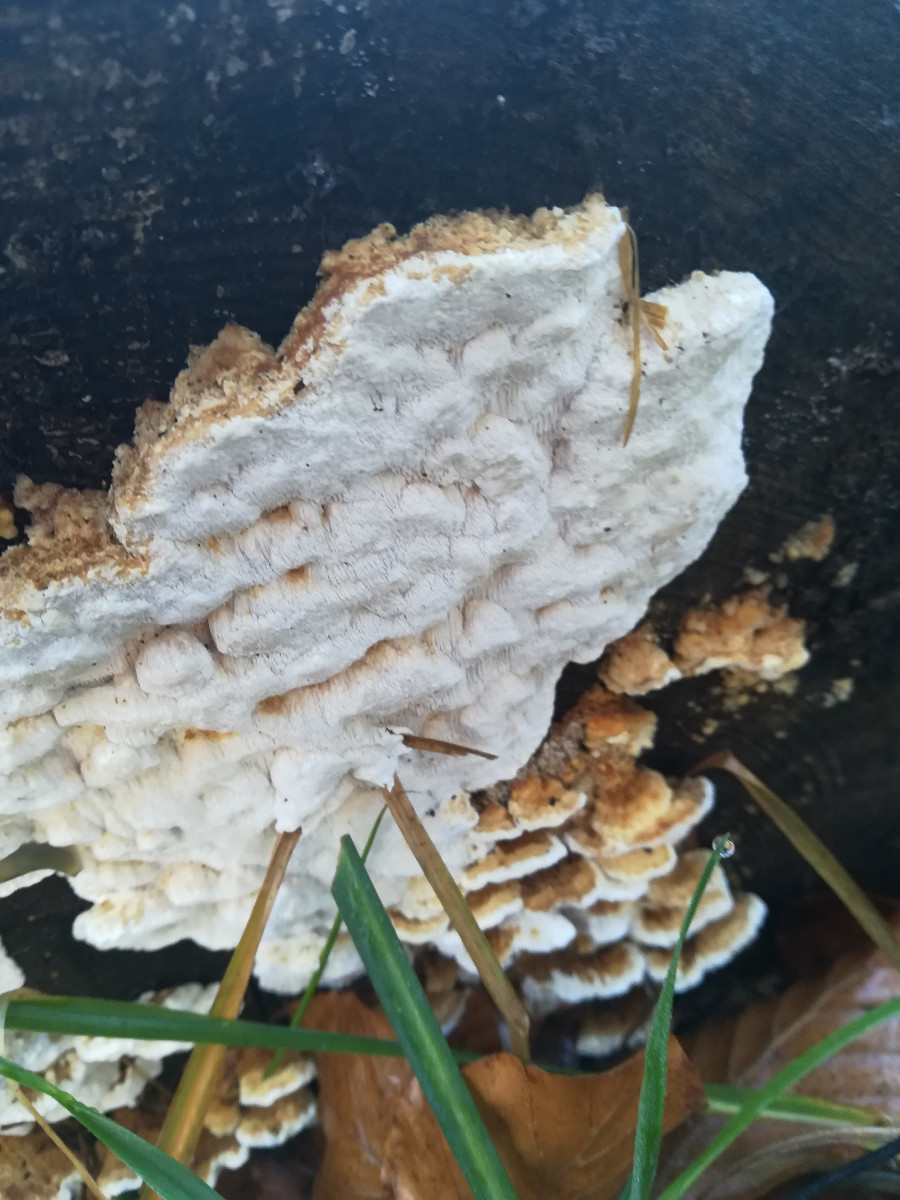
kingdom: Fungi
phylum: Basidiomycota
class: Agaricomycetes
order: Polyporales
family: Fomitopsidaceae
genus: Neoantrodia
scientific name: Neoantrodia serialis
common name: række-sejporesvamp
